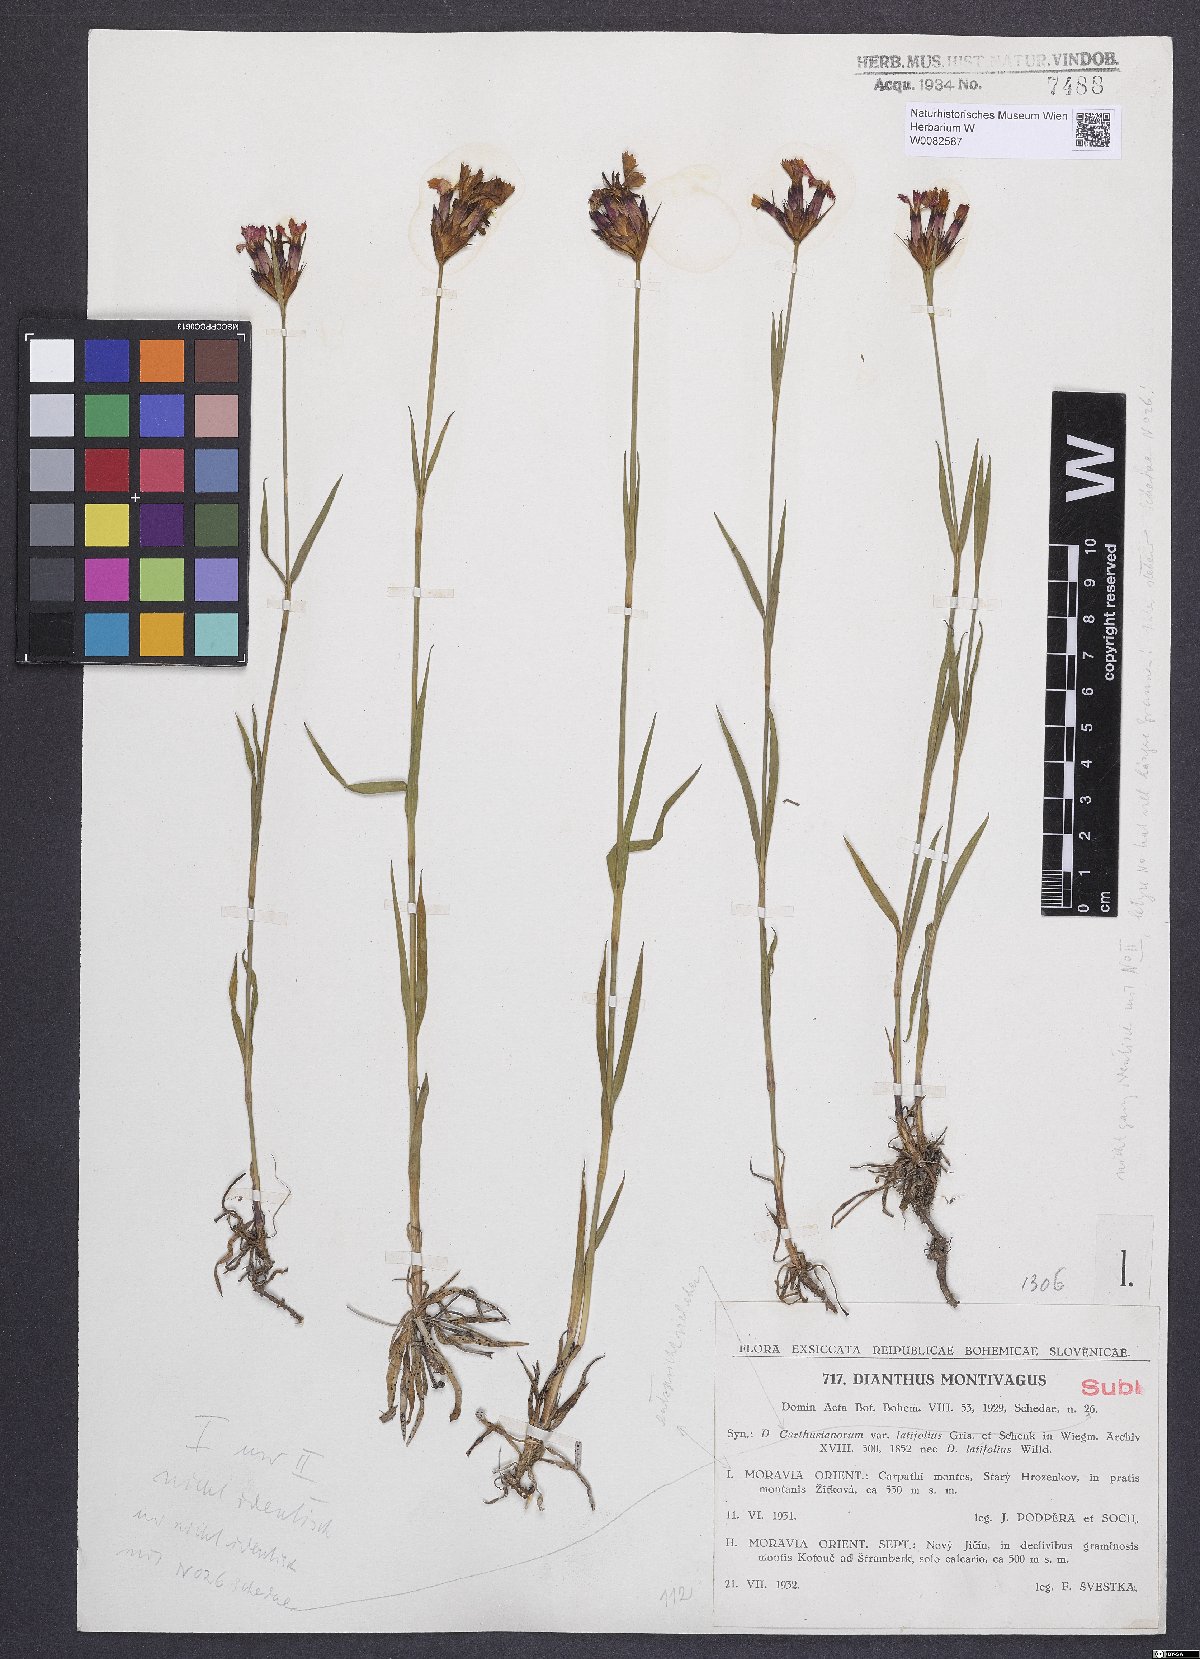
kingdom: Plantae
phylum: Tracheophyta
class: Magnoliopsida
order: Caryophyllales
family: Caryophyllaceae
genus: Dianthus
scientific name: Dianthus carthusianorum
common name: Carthusian pink
